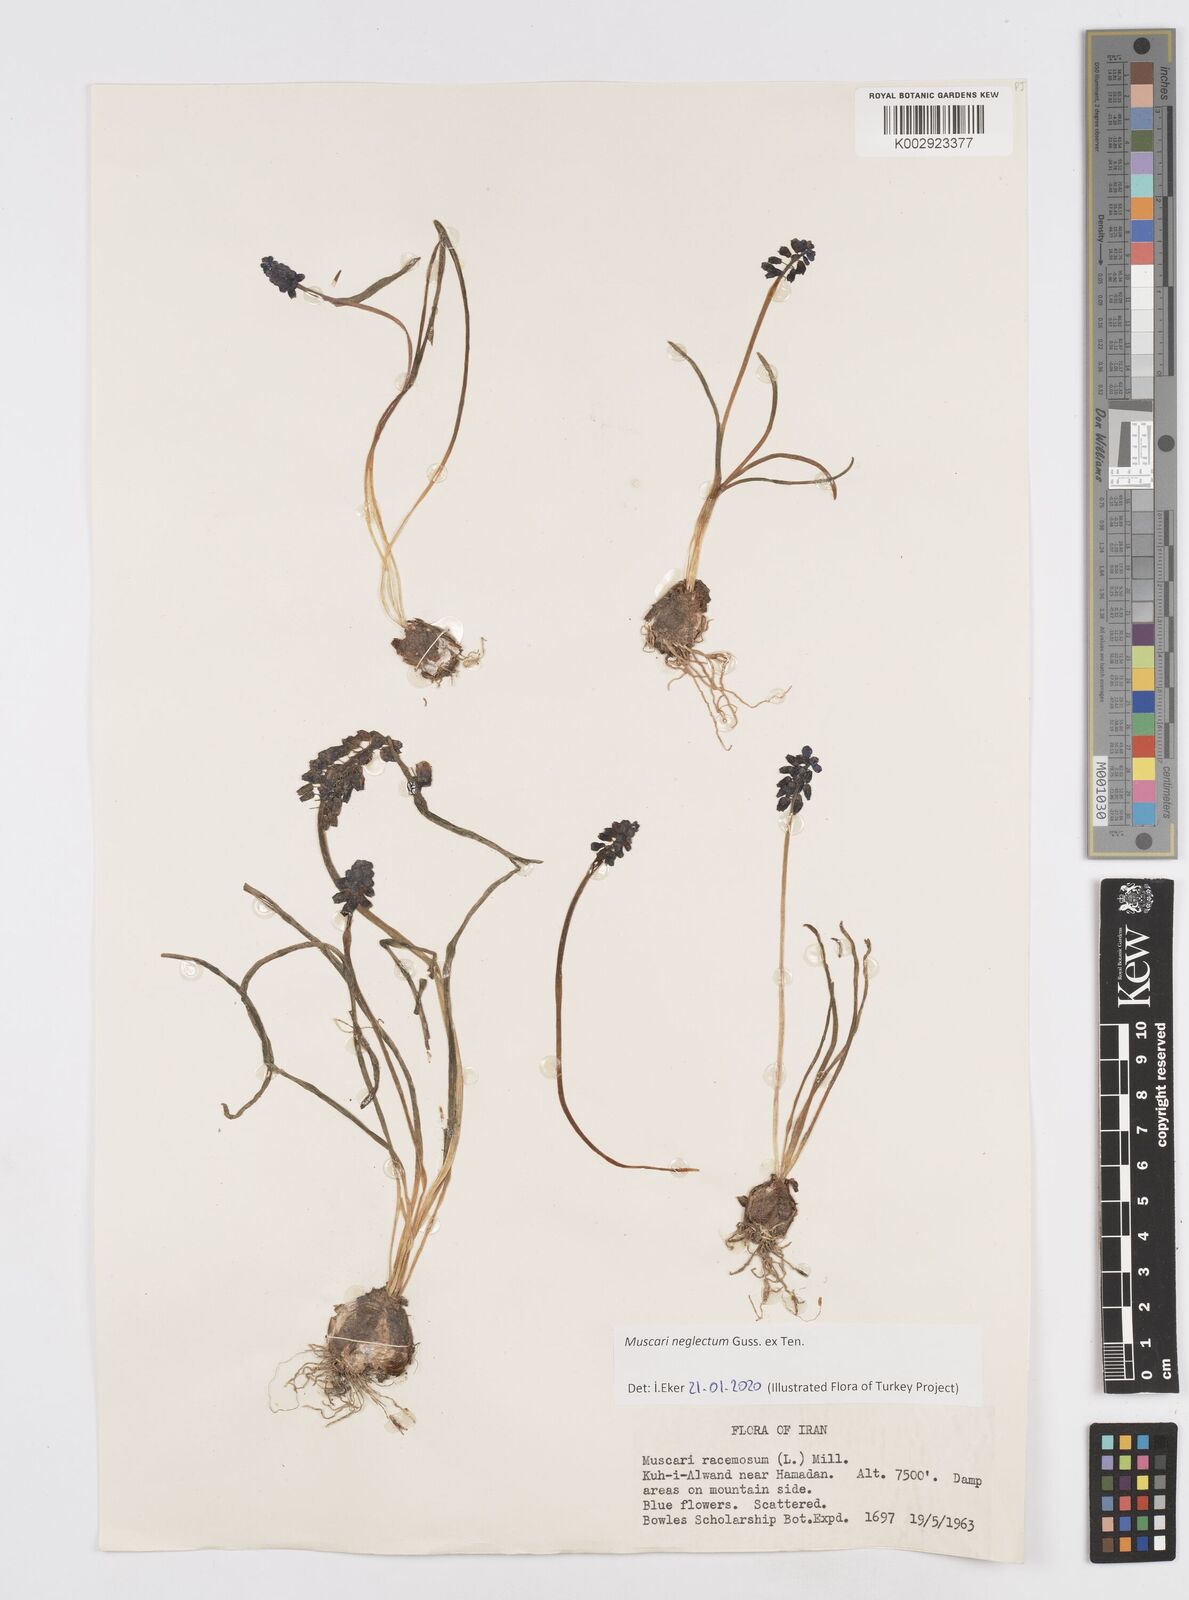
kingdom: Plantae
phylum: Tracheophyta
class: Liliopsida
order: Asparagales
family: Asparagaceae
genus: Muscari
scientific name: Muscari neglectum
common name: Grape-hyacinth
